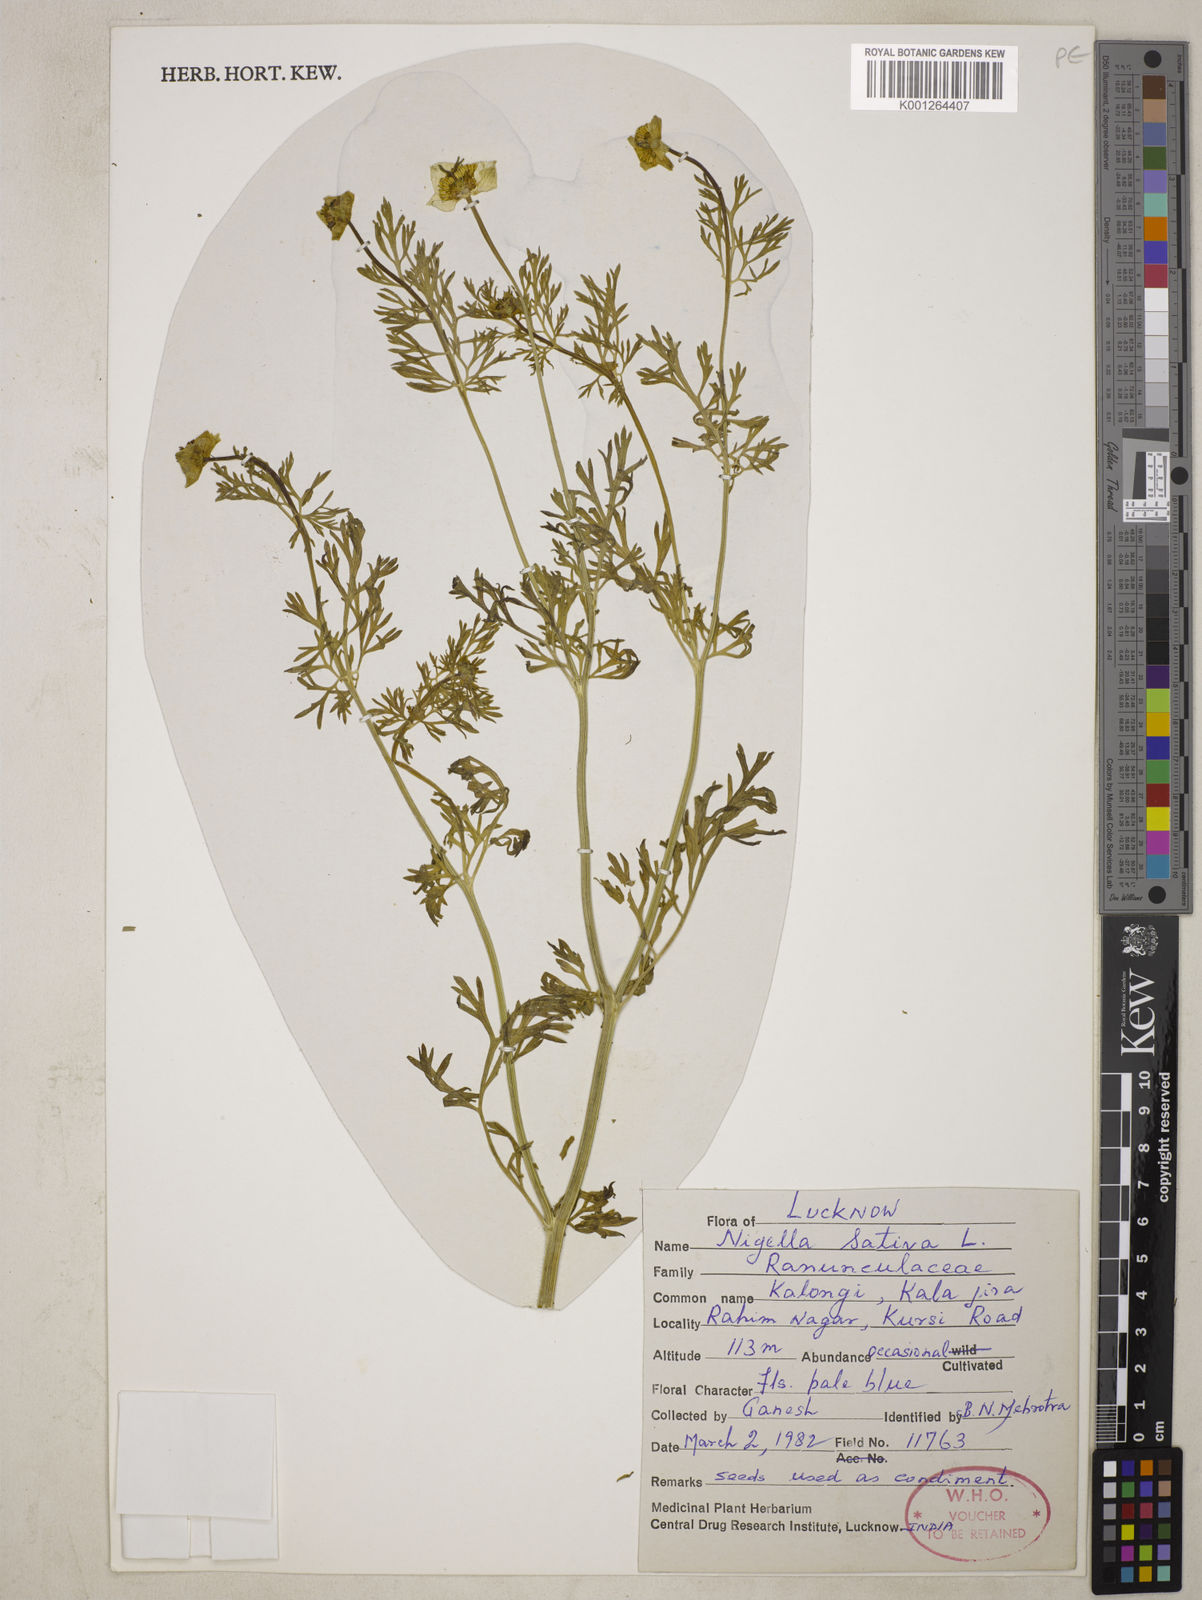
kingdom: Plantae
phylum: Tracheophyta
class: Magnoliopsida
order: Ranunculales
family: Ranunculaceae
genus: Nigella
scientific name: Nigella sativa
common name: Black-cumin
